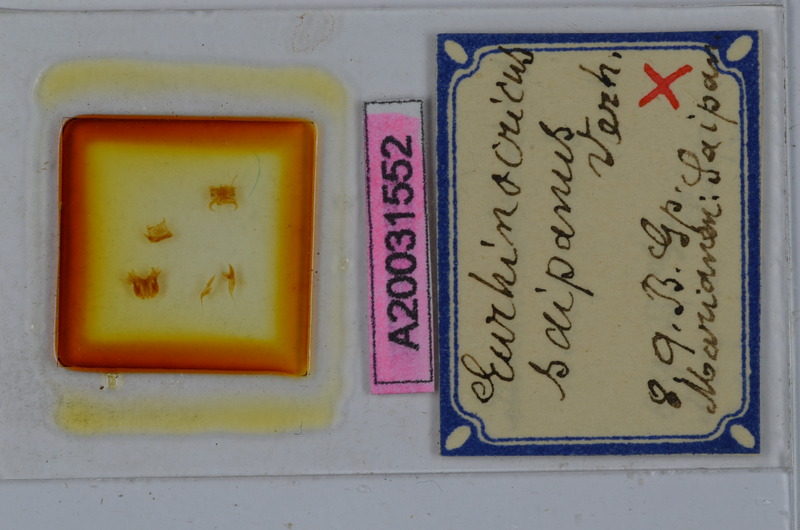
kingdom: Animalia
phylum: Arthropoda
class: Diplopoda
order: Spirobolida
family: Rhinocricidae
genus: Eurhinocricus
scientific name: Eurhinocricus
